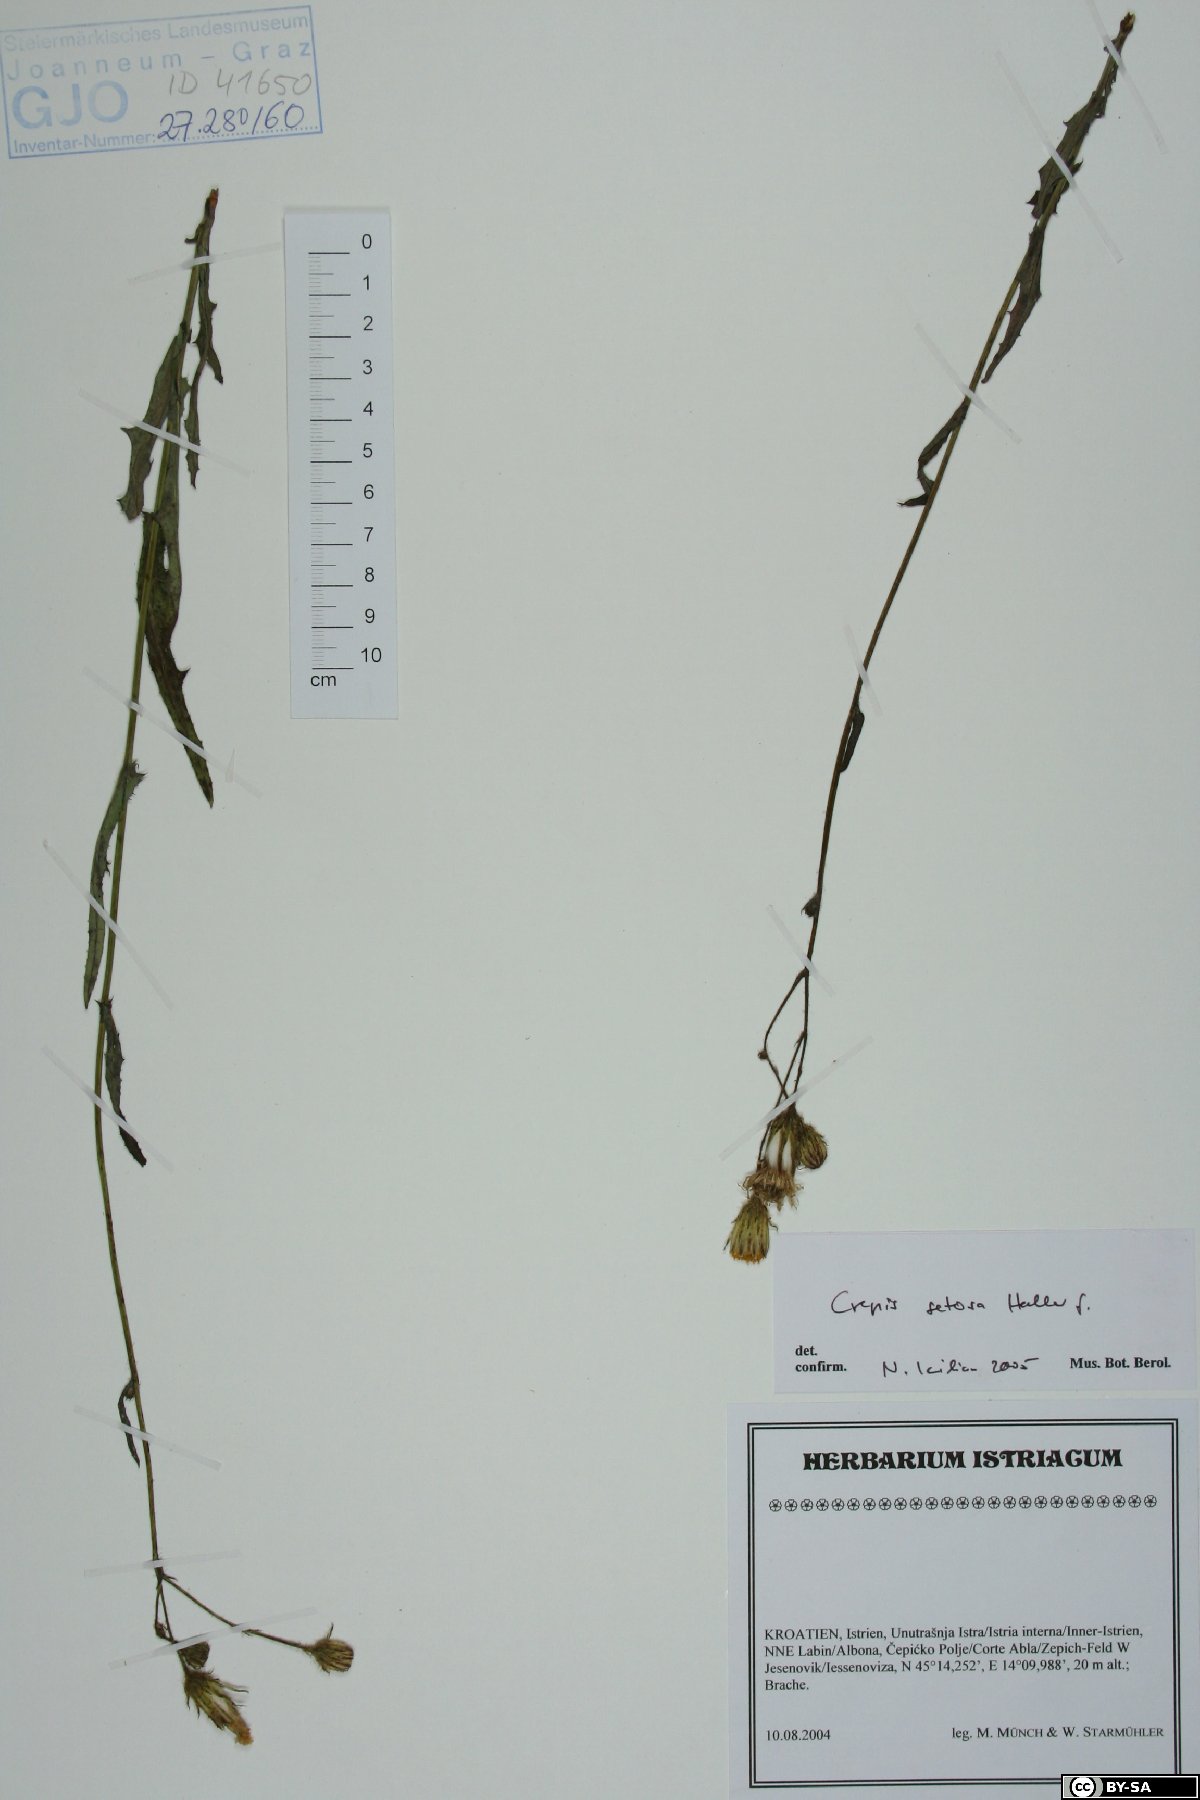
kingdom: Plantae
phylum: Tracheophyta
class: Magnoliopsida
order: Asterales
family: Asteraceae
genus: Crepis
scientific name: Crepis setosa
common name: Bristly hawk's-beard
